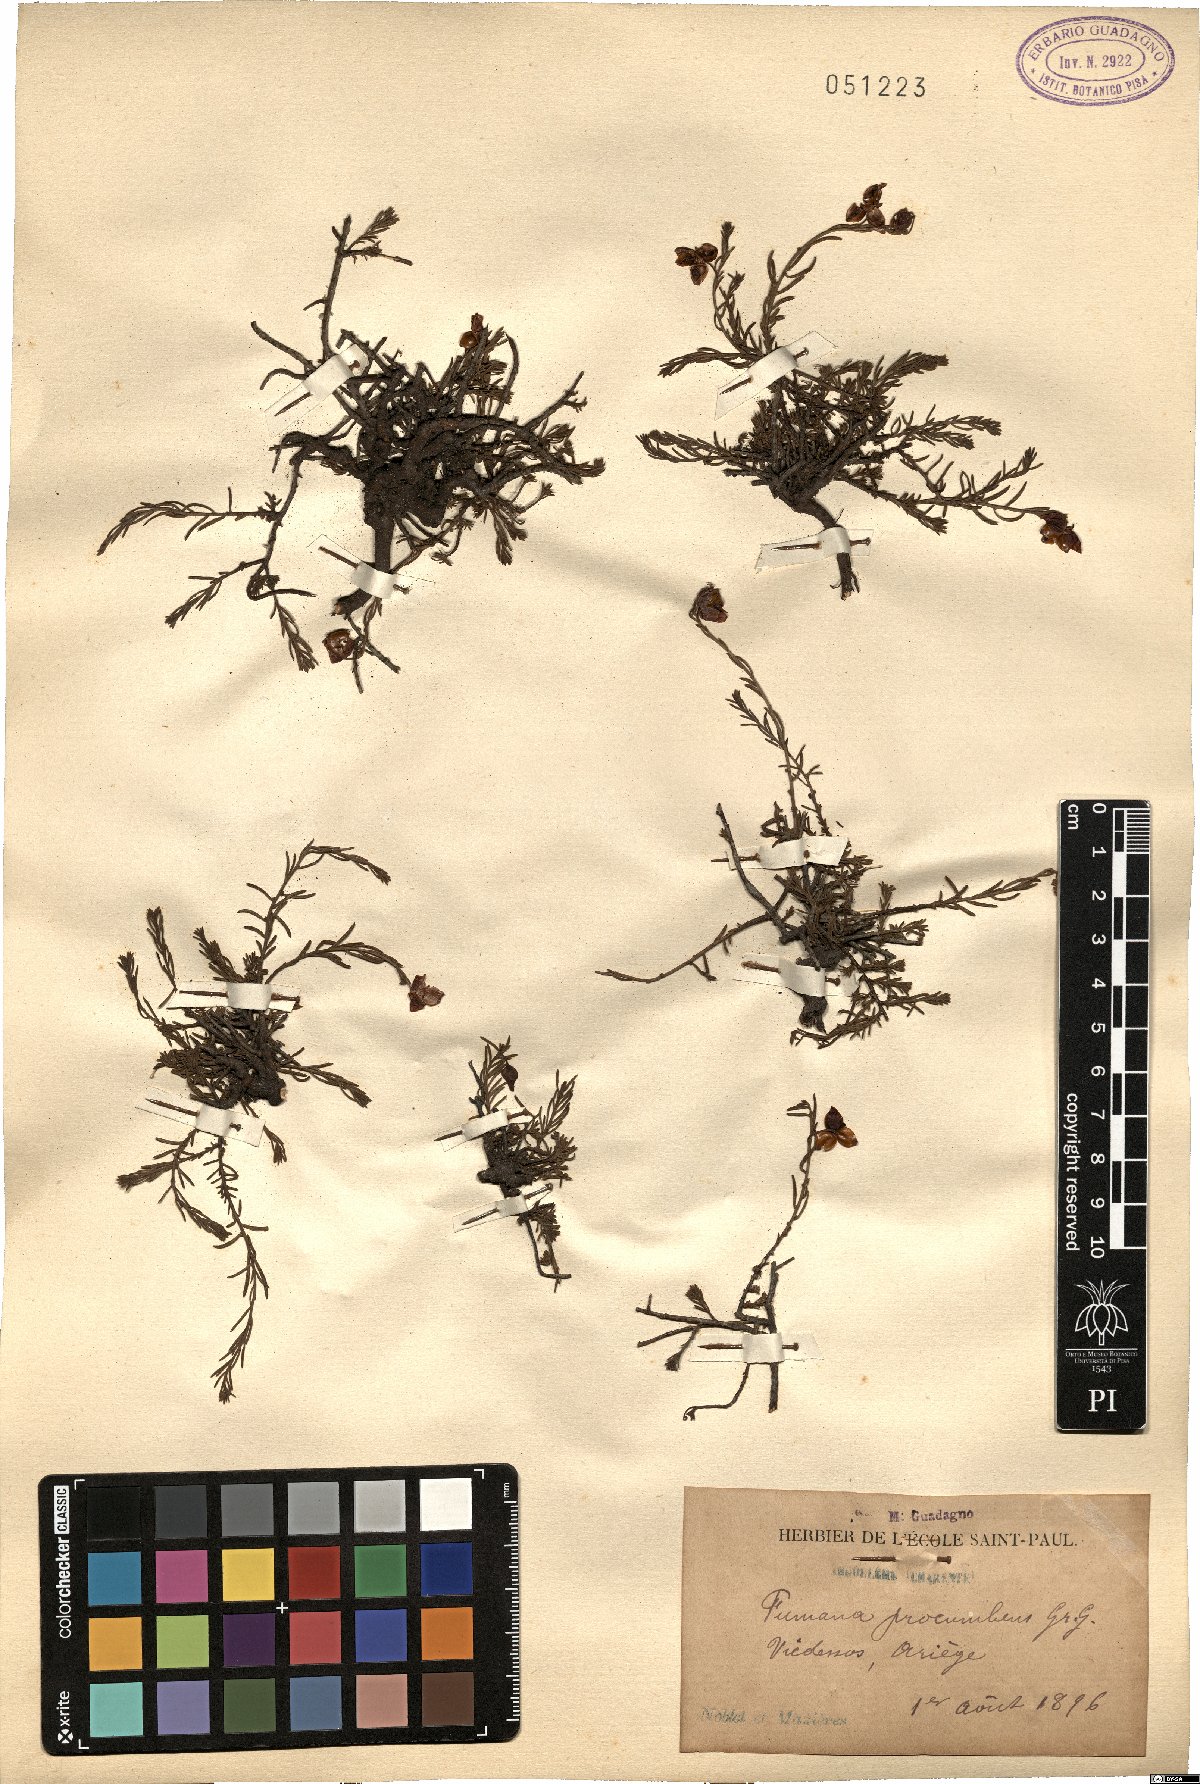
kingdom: Plantae
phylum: Tracheophyta
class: Magnoliopsida
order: Malvales
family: Cistaceae
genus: Fumana
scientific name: Fumana procumbens
